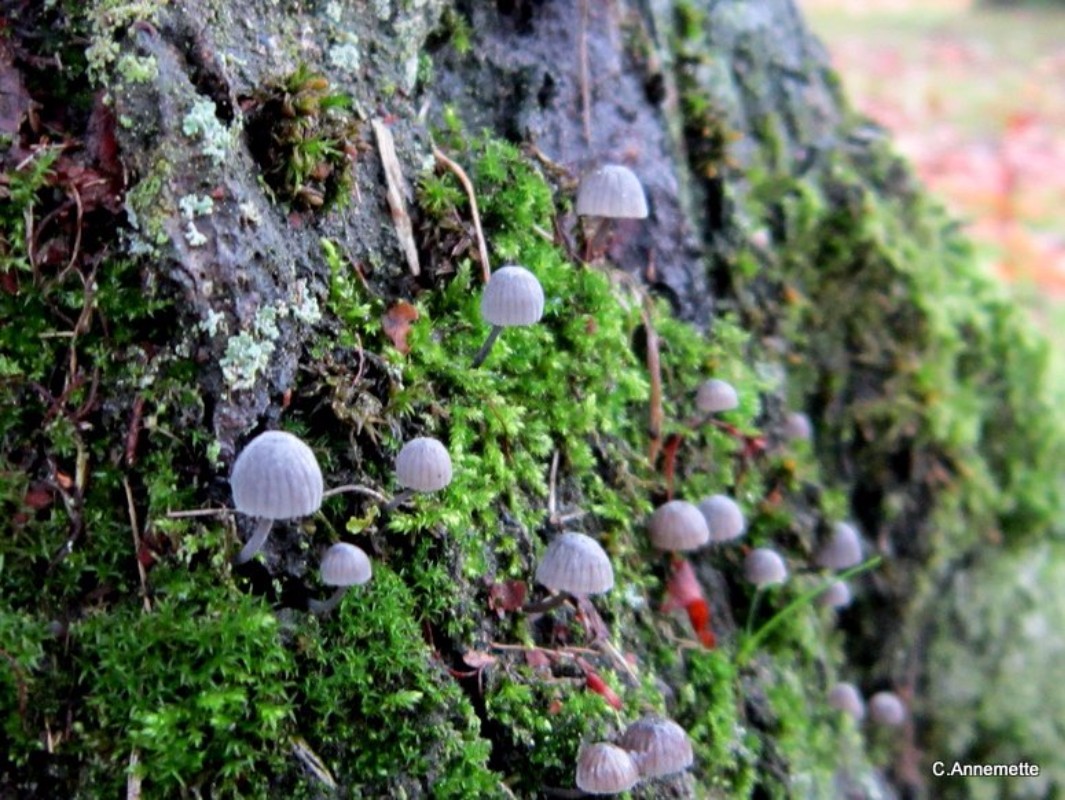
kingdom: Fungi
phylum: Basidiomycota
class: Agaricomycetes
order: Agaricales
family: Mycenaceae
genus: Mycena
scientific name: Mycena pseudocorticola
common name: gråblå bark-huesvamp
